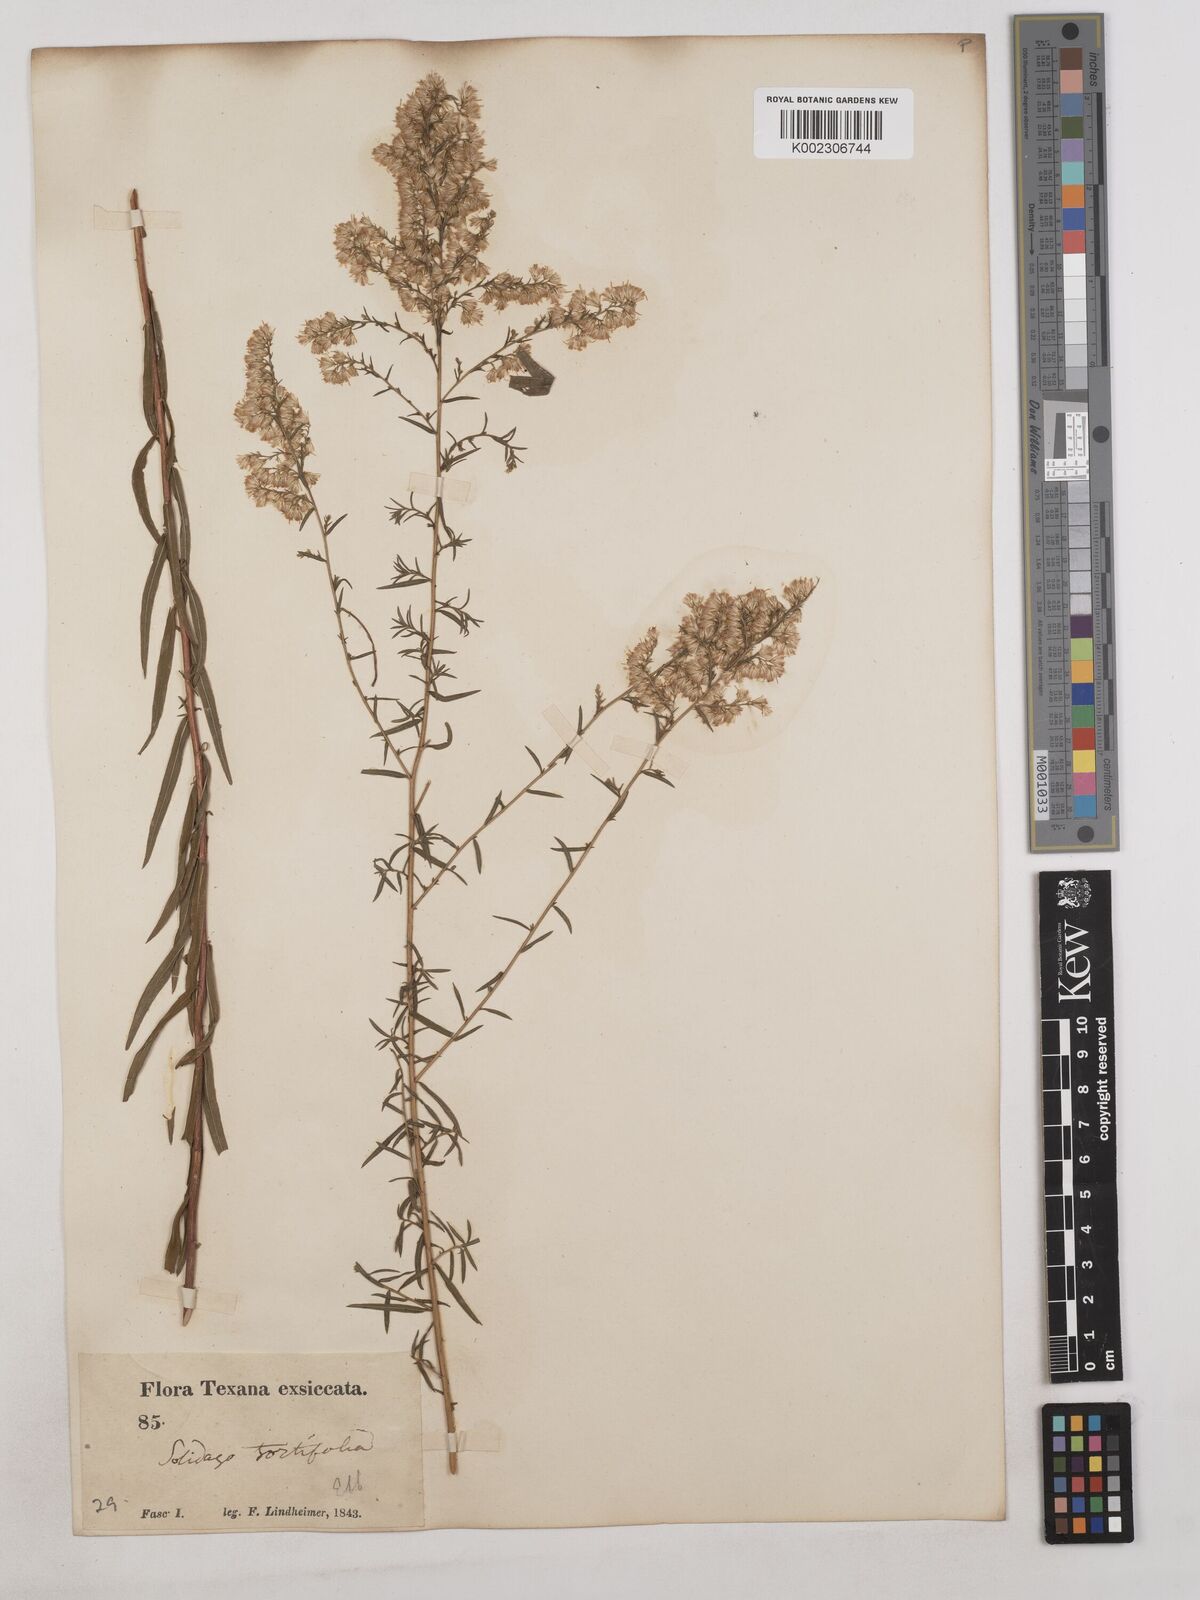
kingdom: Plantae
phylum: Tracheophyta
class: Magnoliopsida
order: Asterales
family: Asteraceae
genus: Solidago
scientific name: Solidago tortifolia
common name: Twisted-leaf goldenrod
